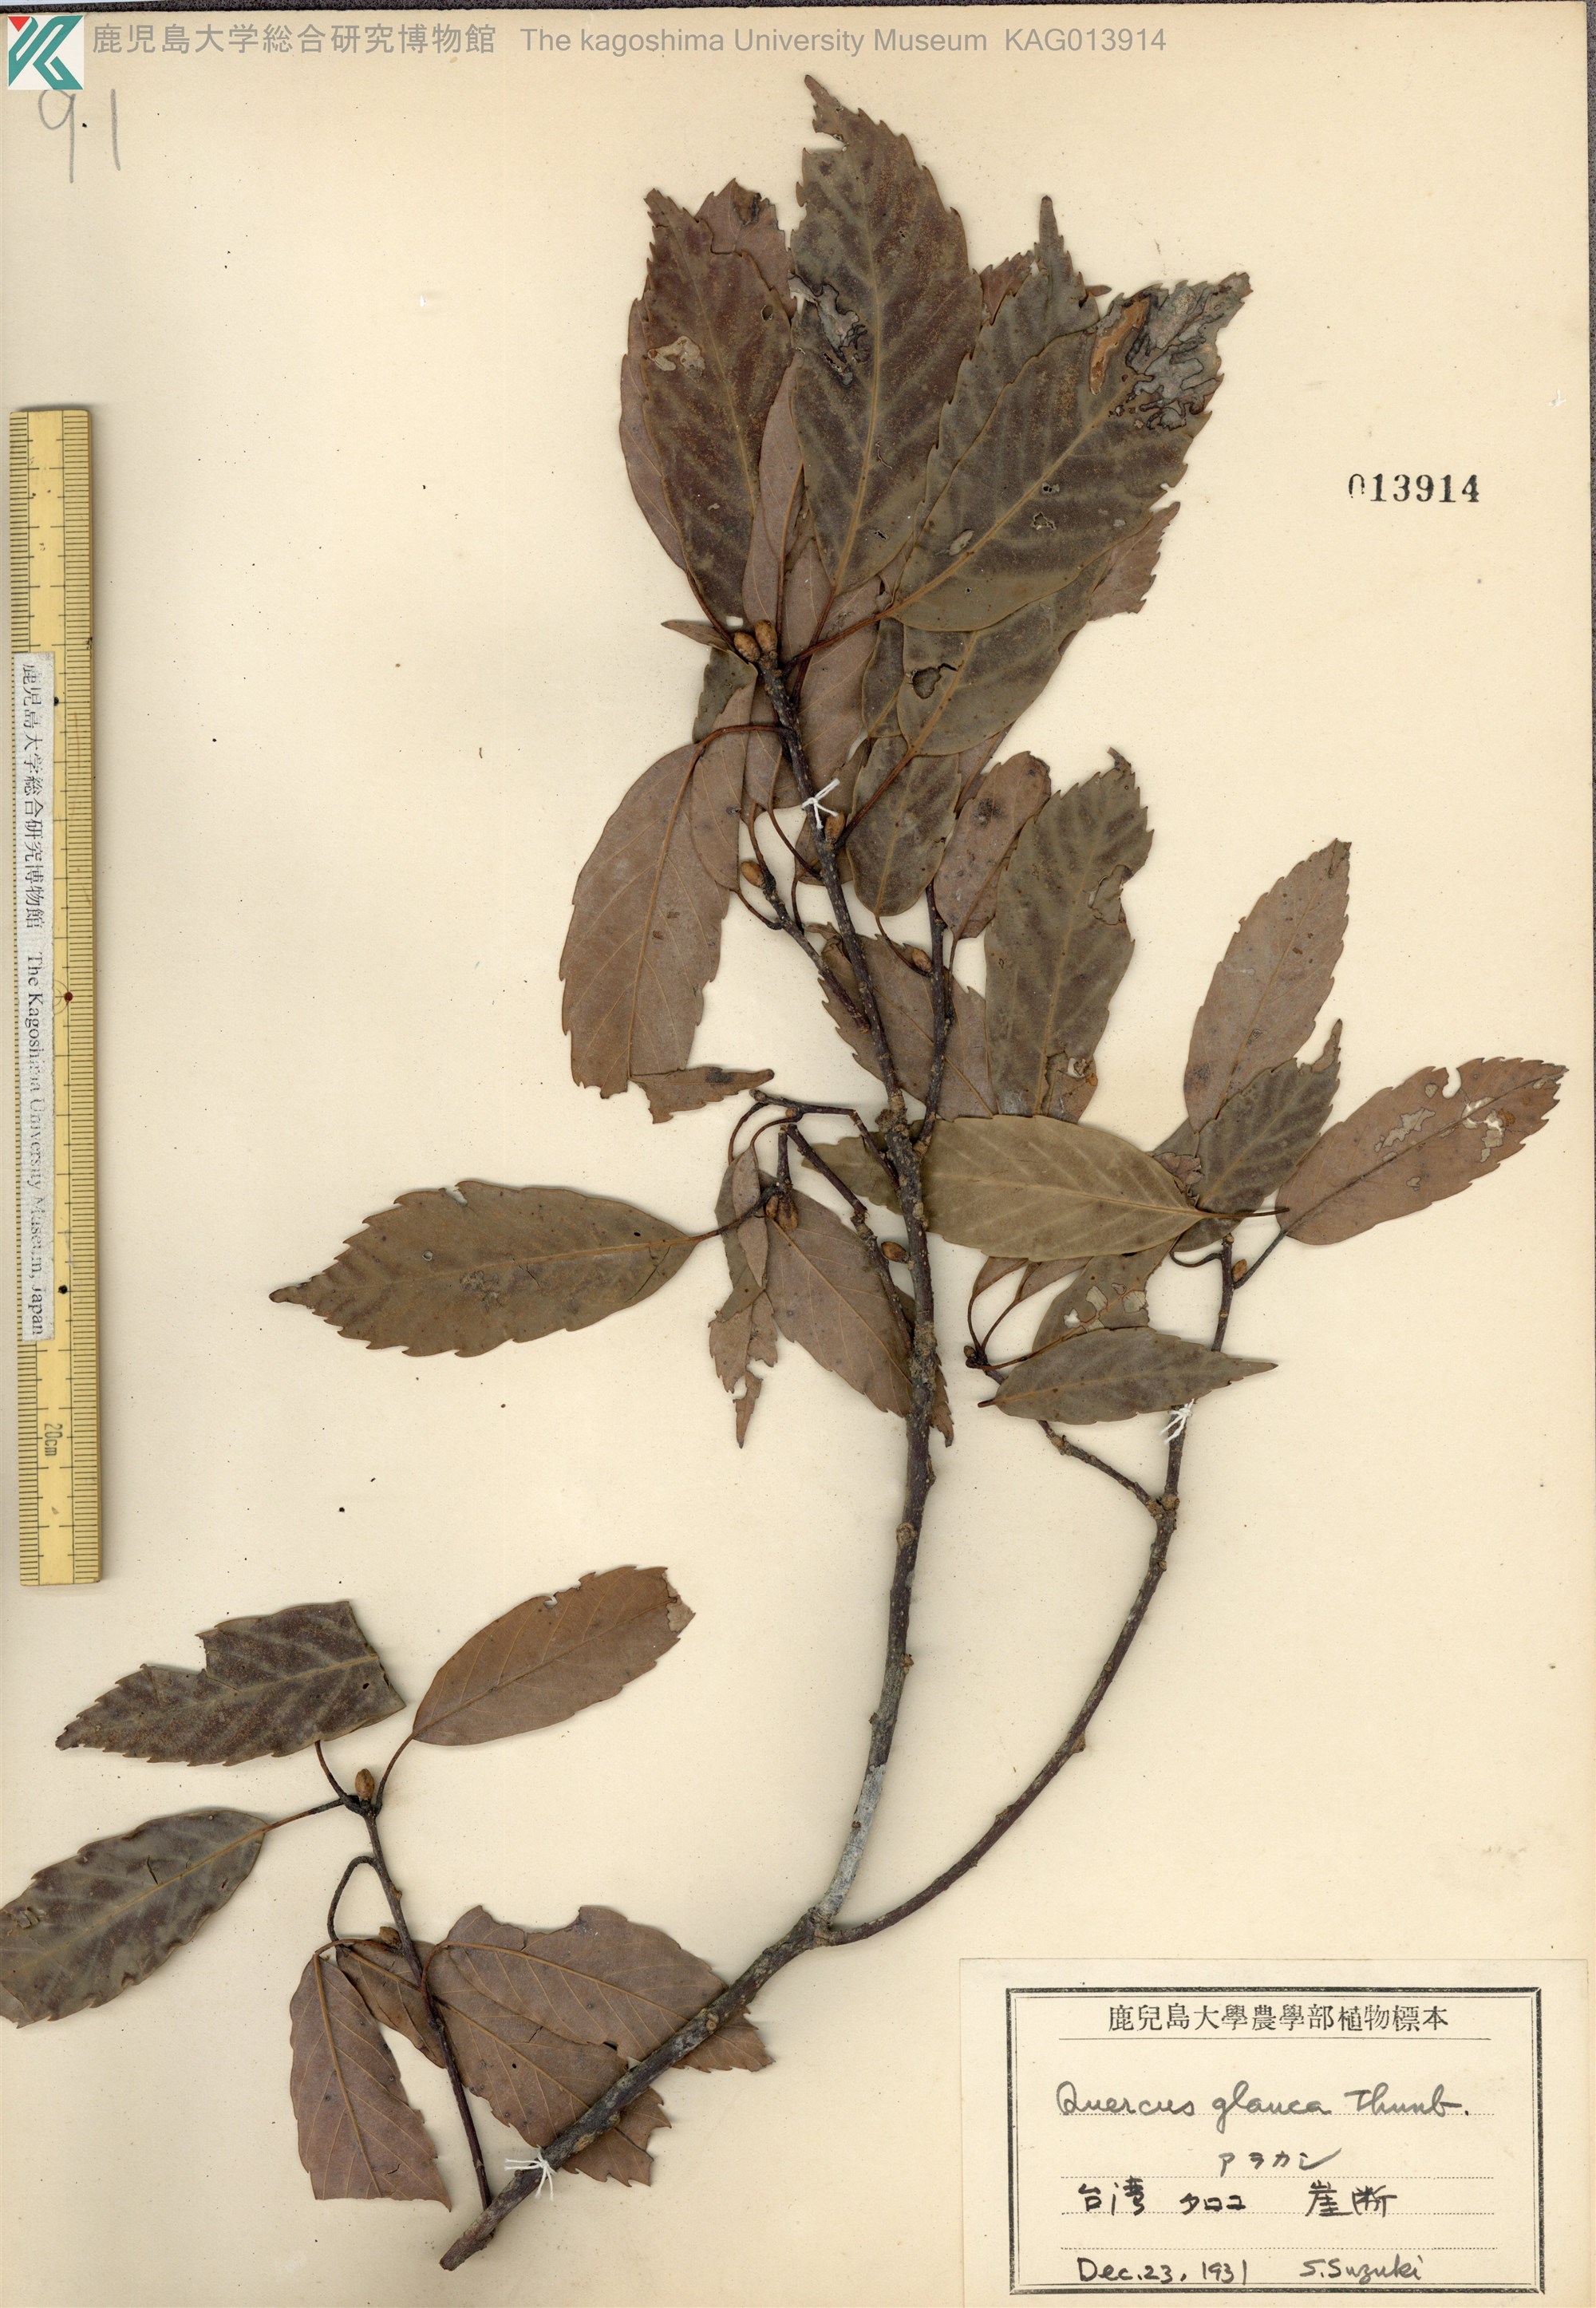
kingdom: Plantae
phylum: Tracheophyta
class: Magnoliopsida
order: Fagales
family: Fagaceae
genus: Quercus
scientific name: Quercus glauca
